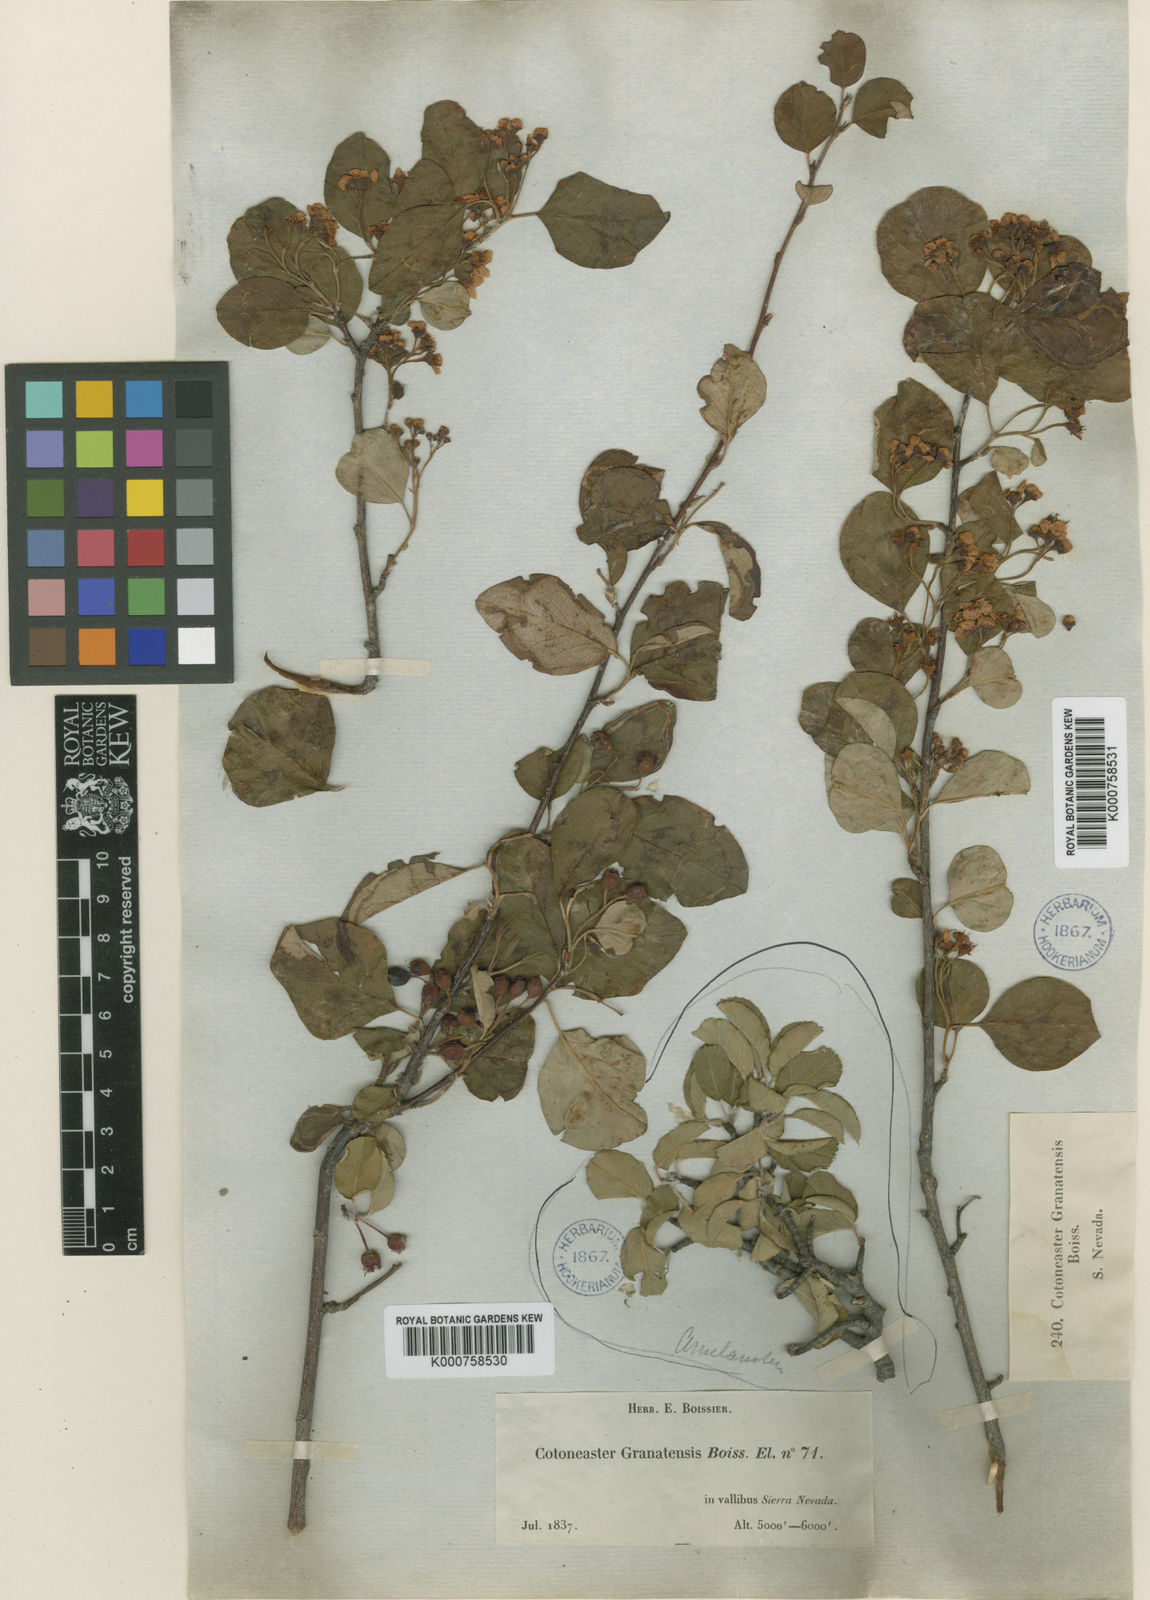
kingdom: Plantae
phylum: Tracheophyta
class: Magnoliopsida
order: Rosales
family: Rosaceae
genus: Cotoneaster
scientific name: Cotoneaster
